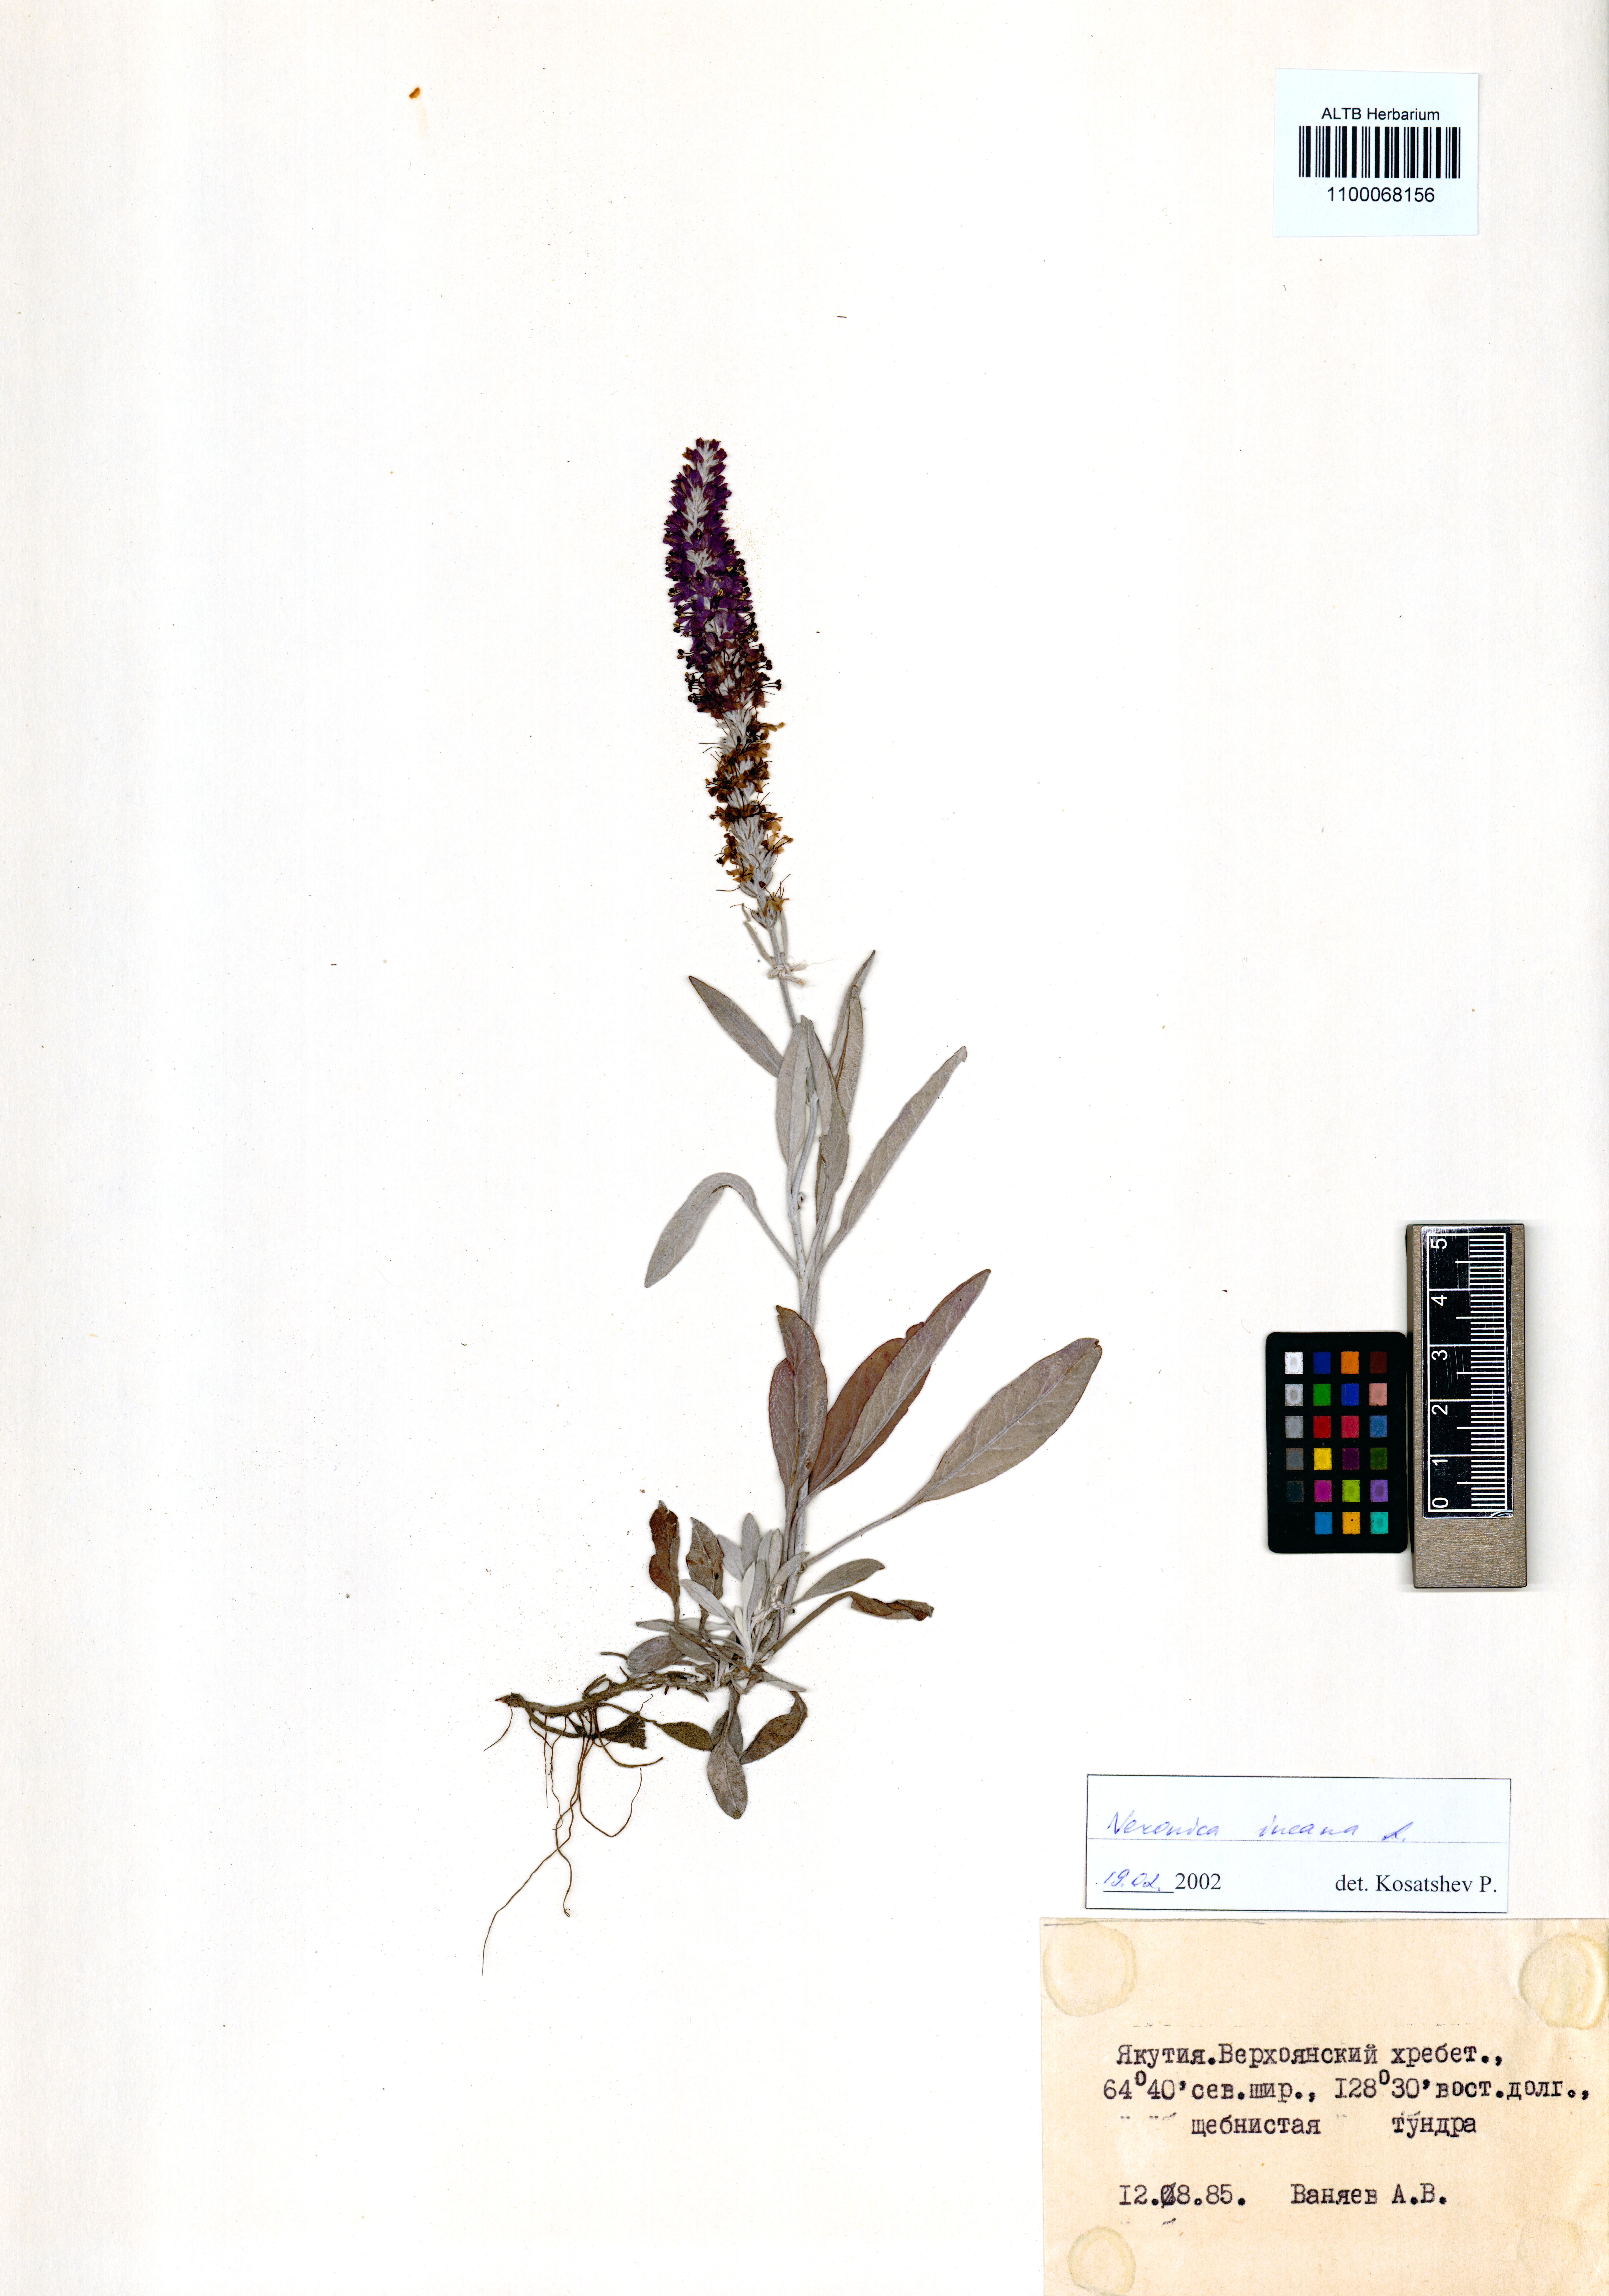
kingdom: Plantae
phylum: Tracheophyta
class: Magnoliopsida
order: Lamiales
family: Plantaginaceae
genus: Veronica
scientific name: Veronica incana
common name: Silver speedwell
